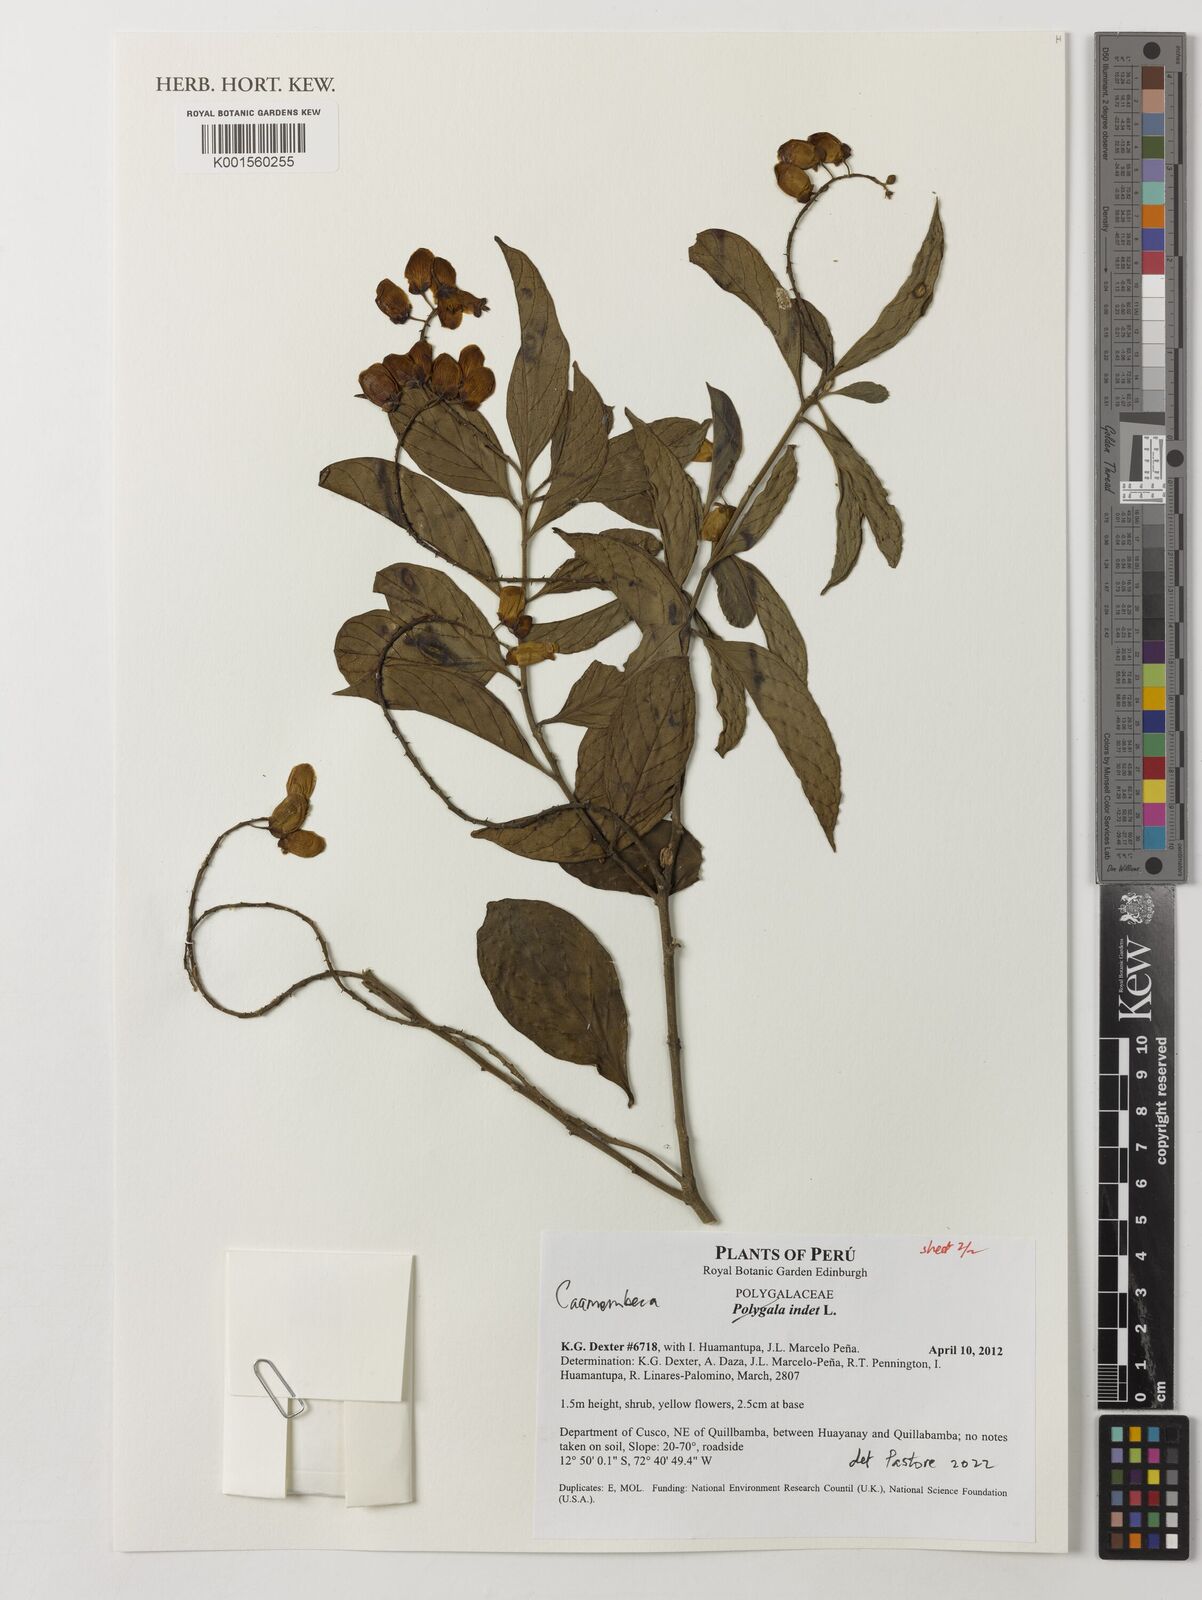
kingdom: Plantae
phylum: Tracheophyta
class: Magnoliopsida
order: Fabales
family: Polygalaceae
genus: Caamembeca
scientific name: Caamembeca
